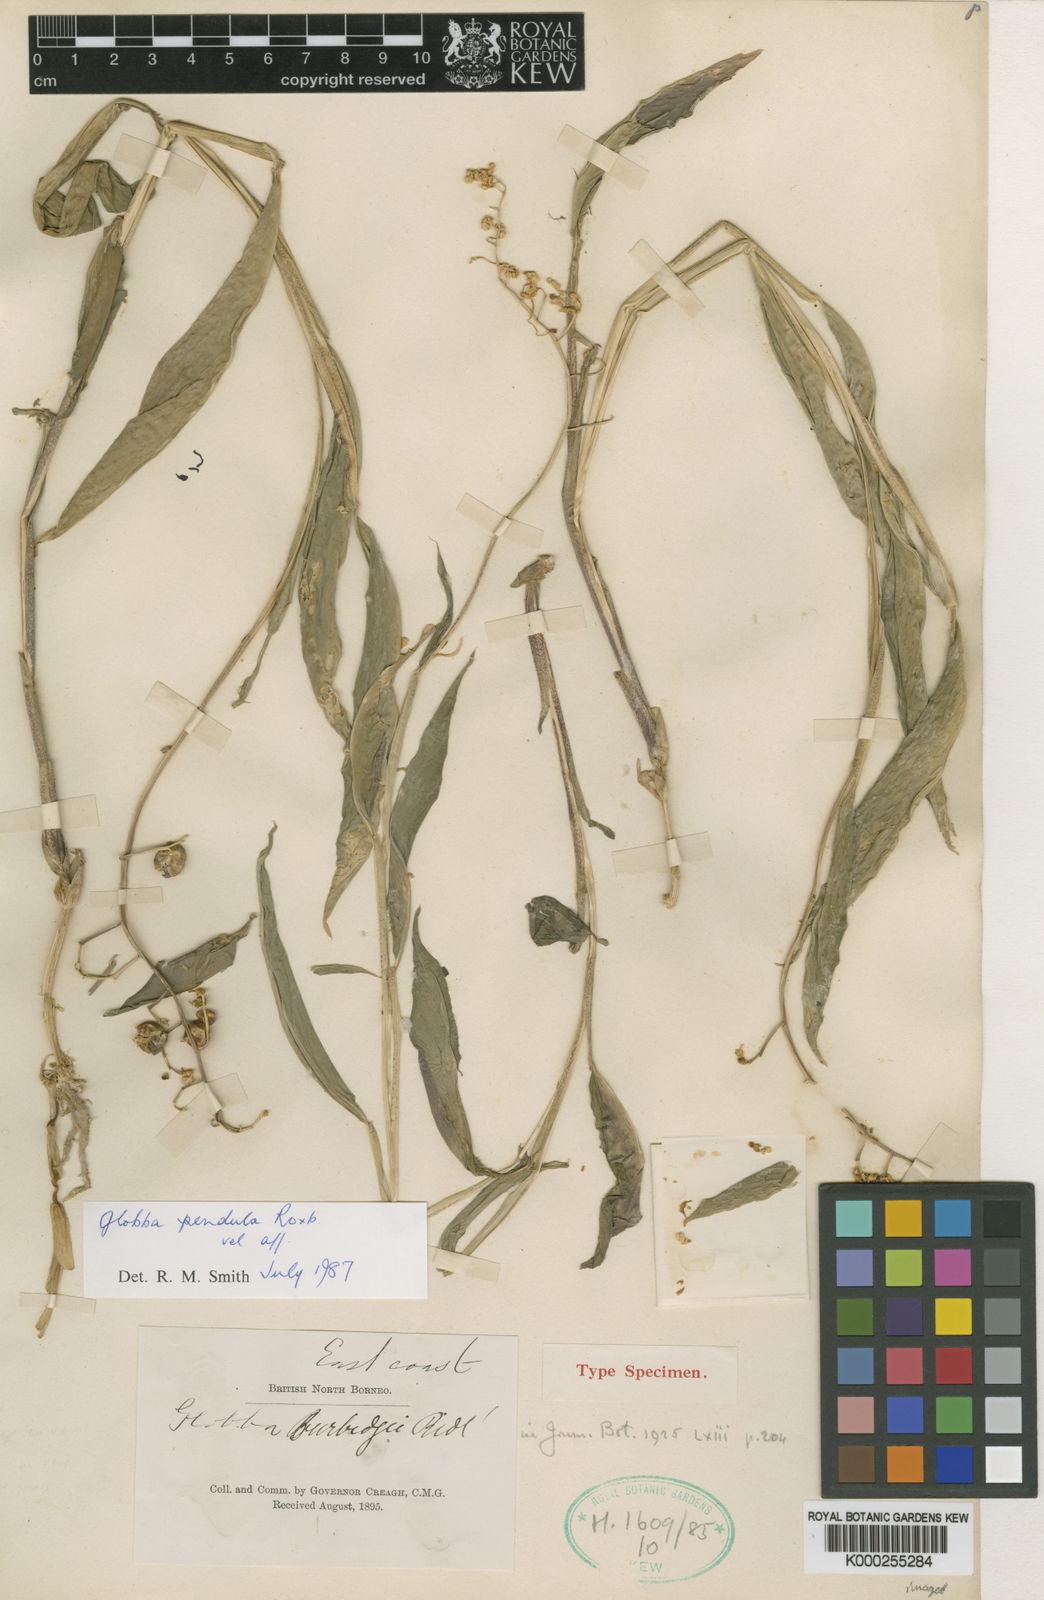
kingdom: Plantae
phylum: Tracheophyta
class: Liliopsida
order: Zingiberales
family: Zingiberaceae
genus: Globba
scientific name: Globba pendula
